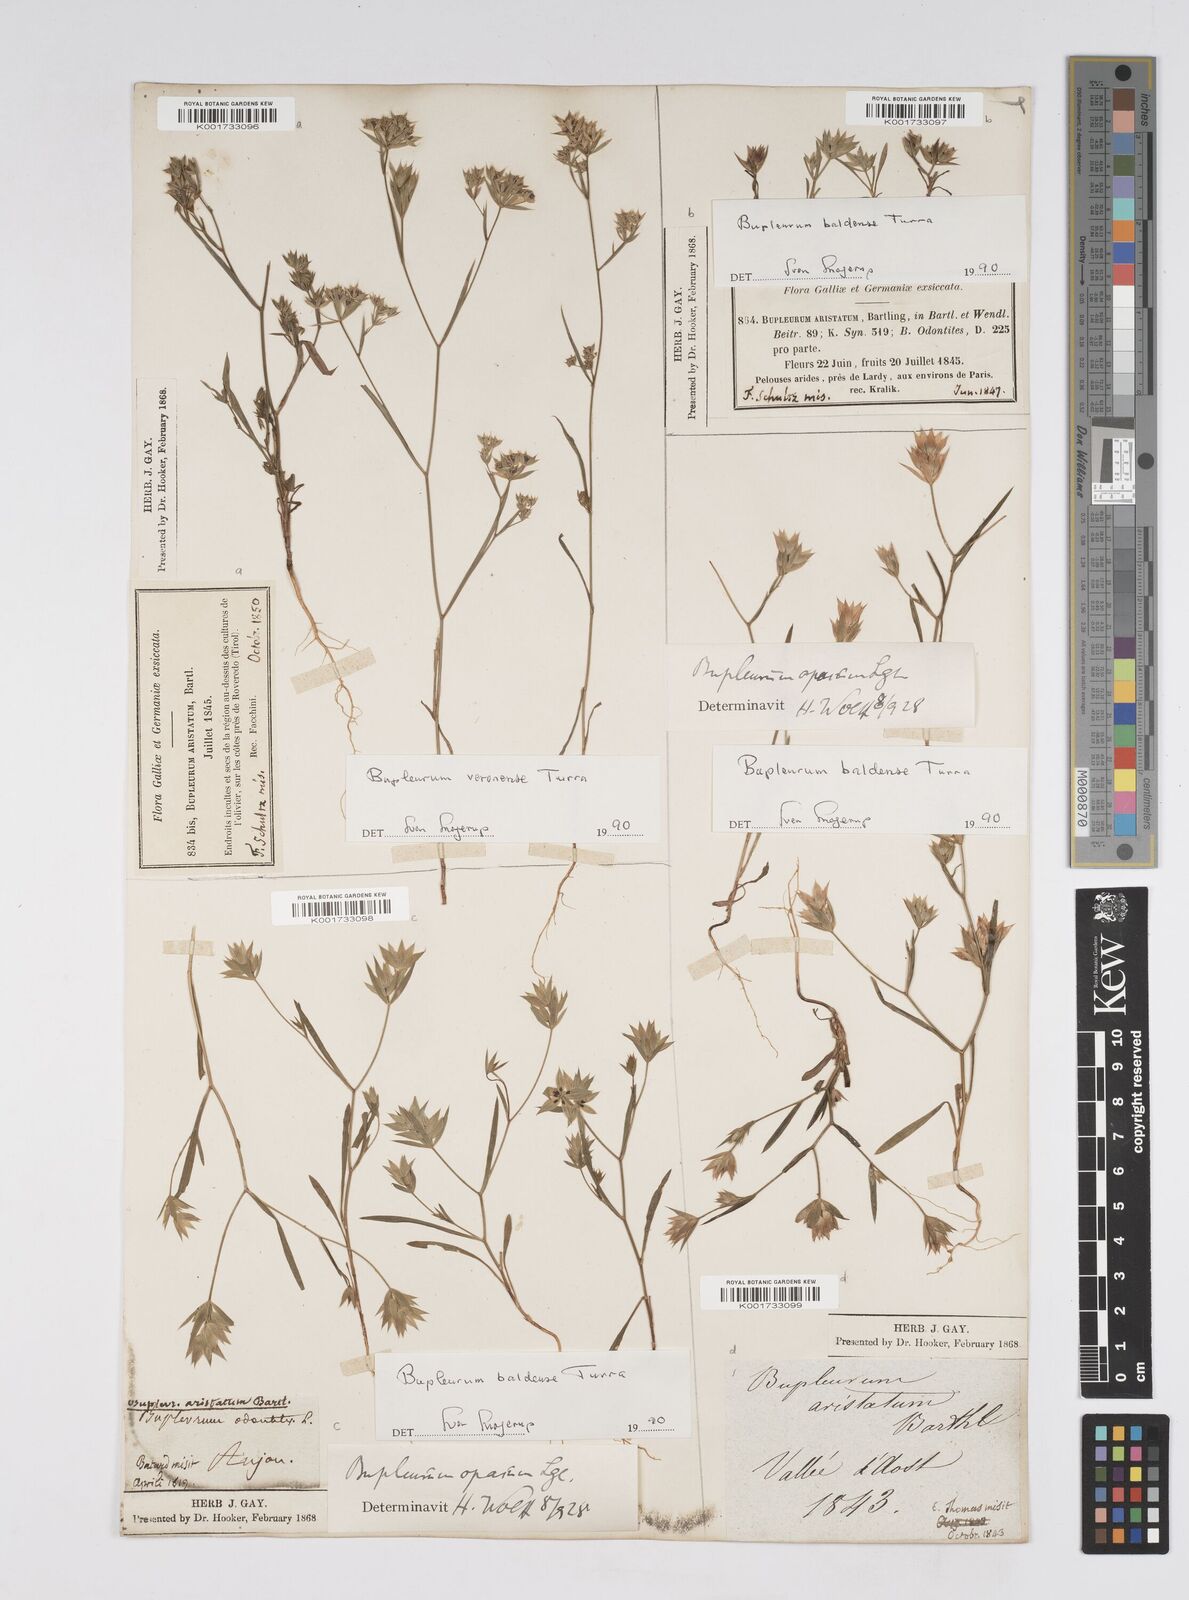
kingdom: Plantae
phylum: Tracheophyta
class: Magnoliopsida
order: Apiales
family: Apiaceae
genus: Bupleurum
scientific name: Bupleurum baldense
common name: Small hare's-ear
